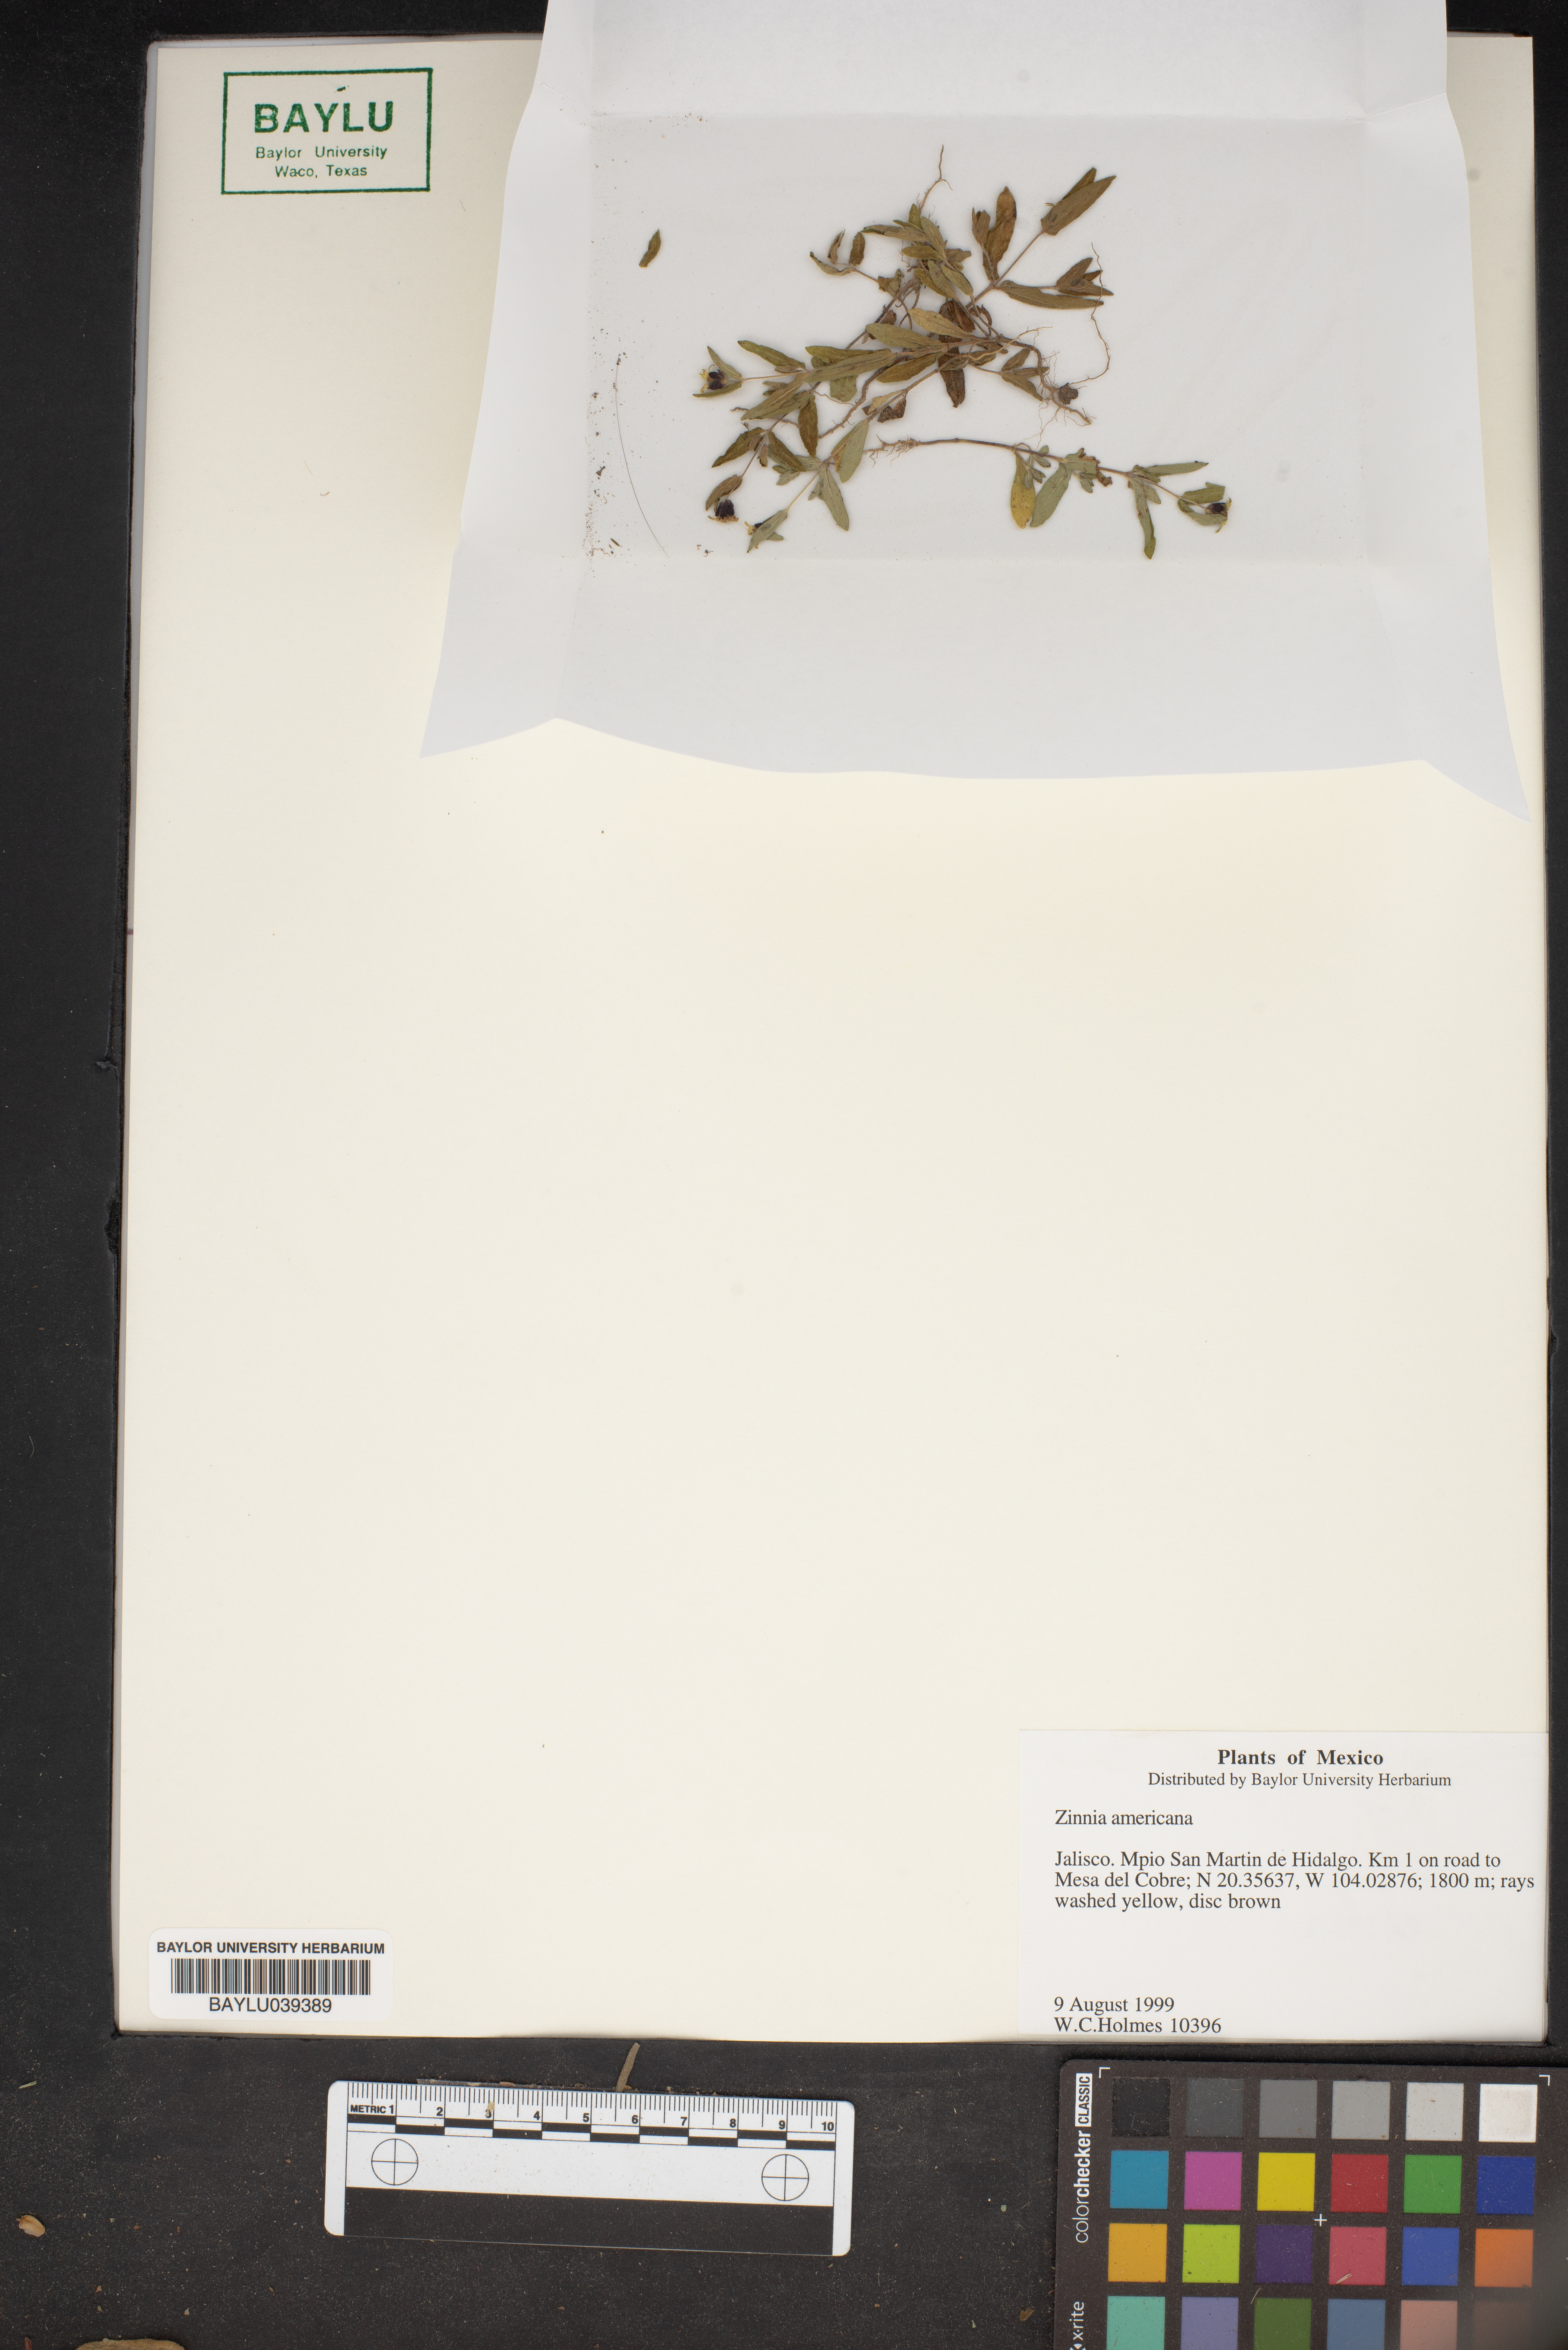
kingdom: Plantae
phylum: Tracheophyta
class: Magnoliopsida
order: Asterales
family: Asteraceae
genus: Zinnia
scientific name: Zinnia americana
